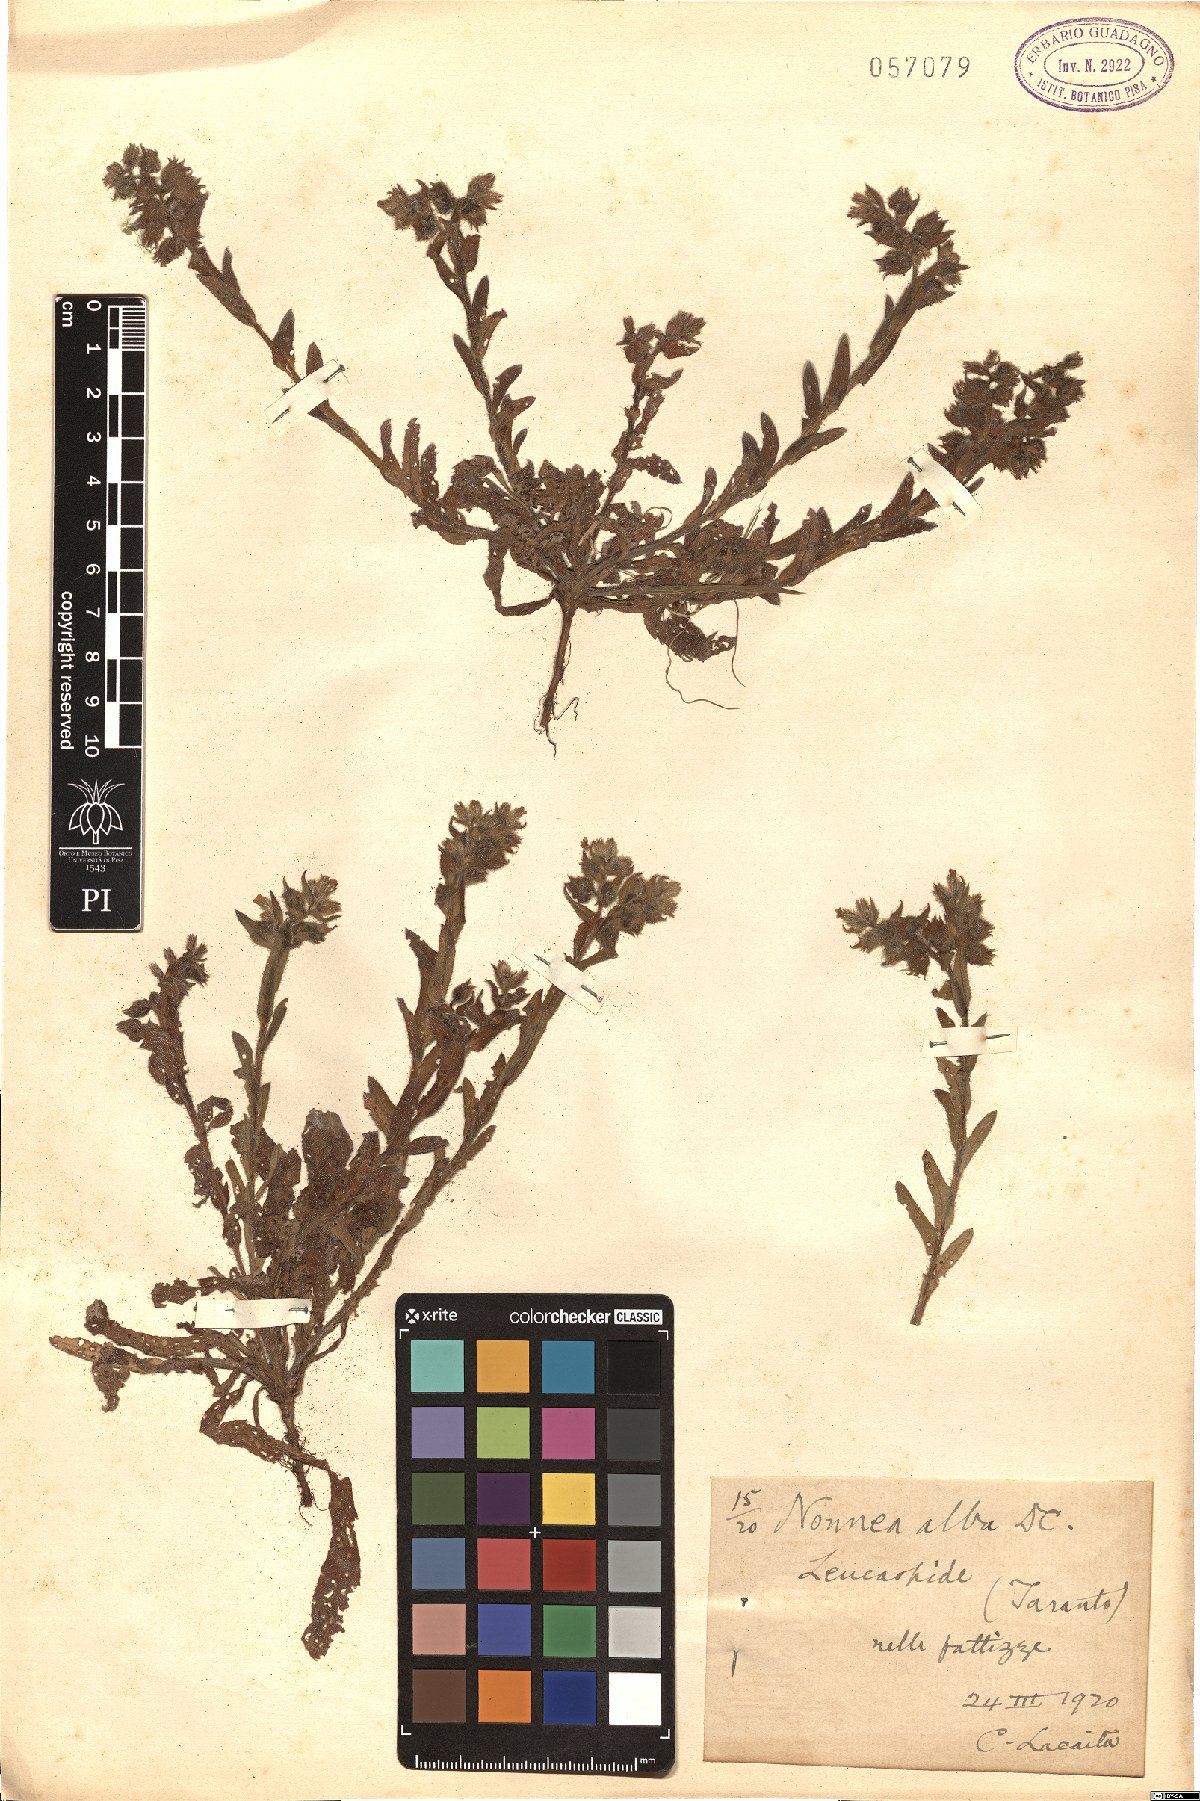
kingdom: Plantae
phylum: Tracheophyta
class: Magnoliopsida
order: Boraginales
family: Boraginaceae
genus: Nonea
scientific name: Nonea echioides
